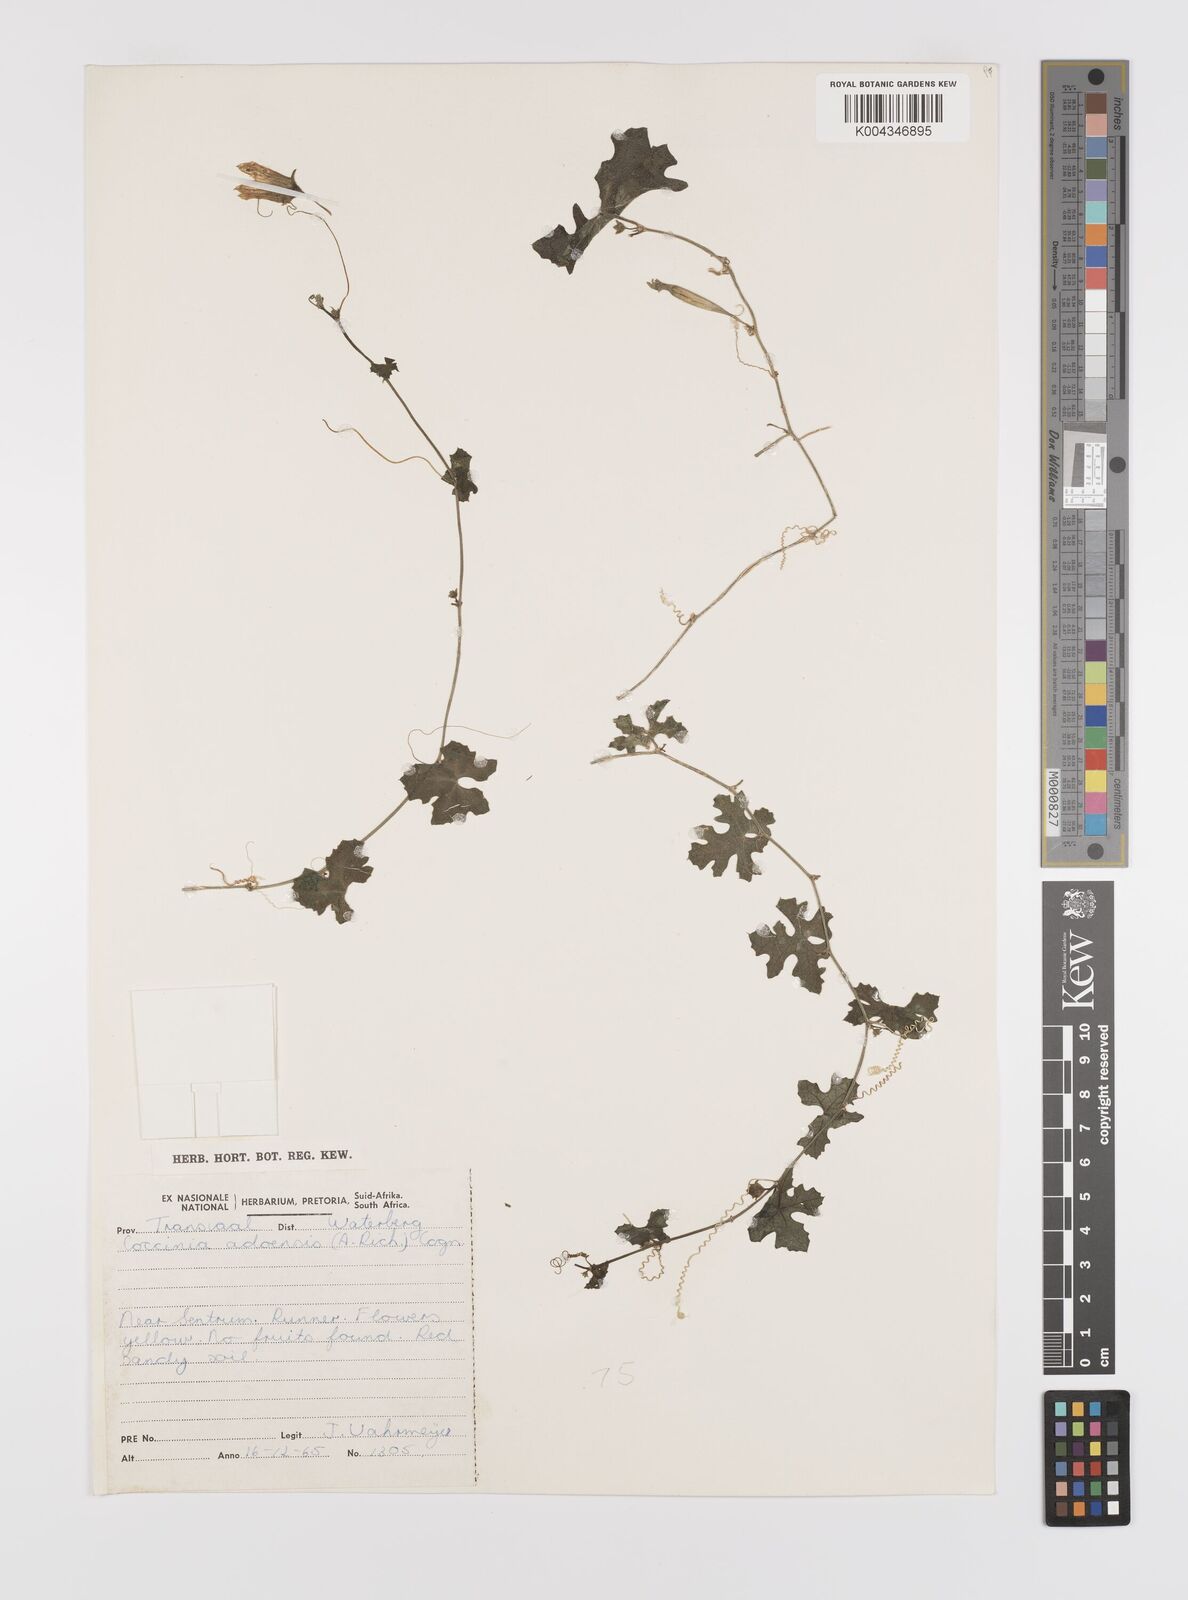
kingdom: Plantae
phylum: Tracheophyta
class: Magnoliopsida
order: Cucurbitales
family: Cucurbitaceae
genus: Coccinia
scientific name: Coccinia rehmannii
